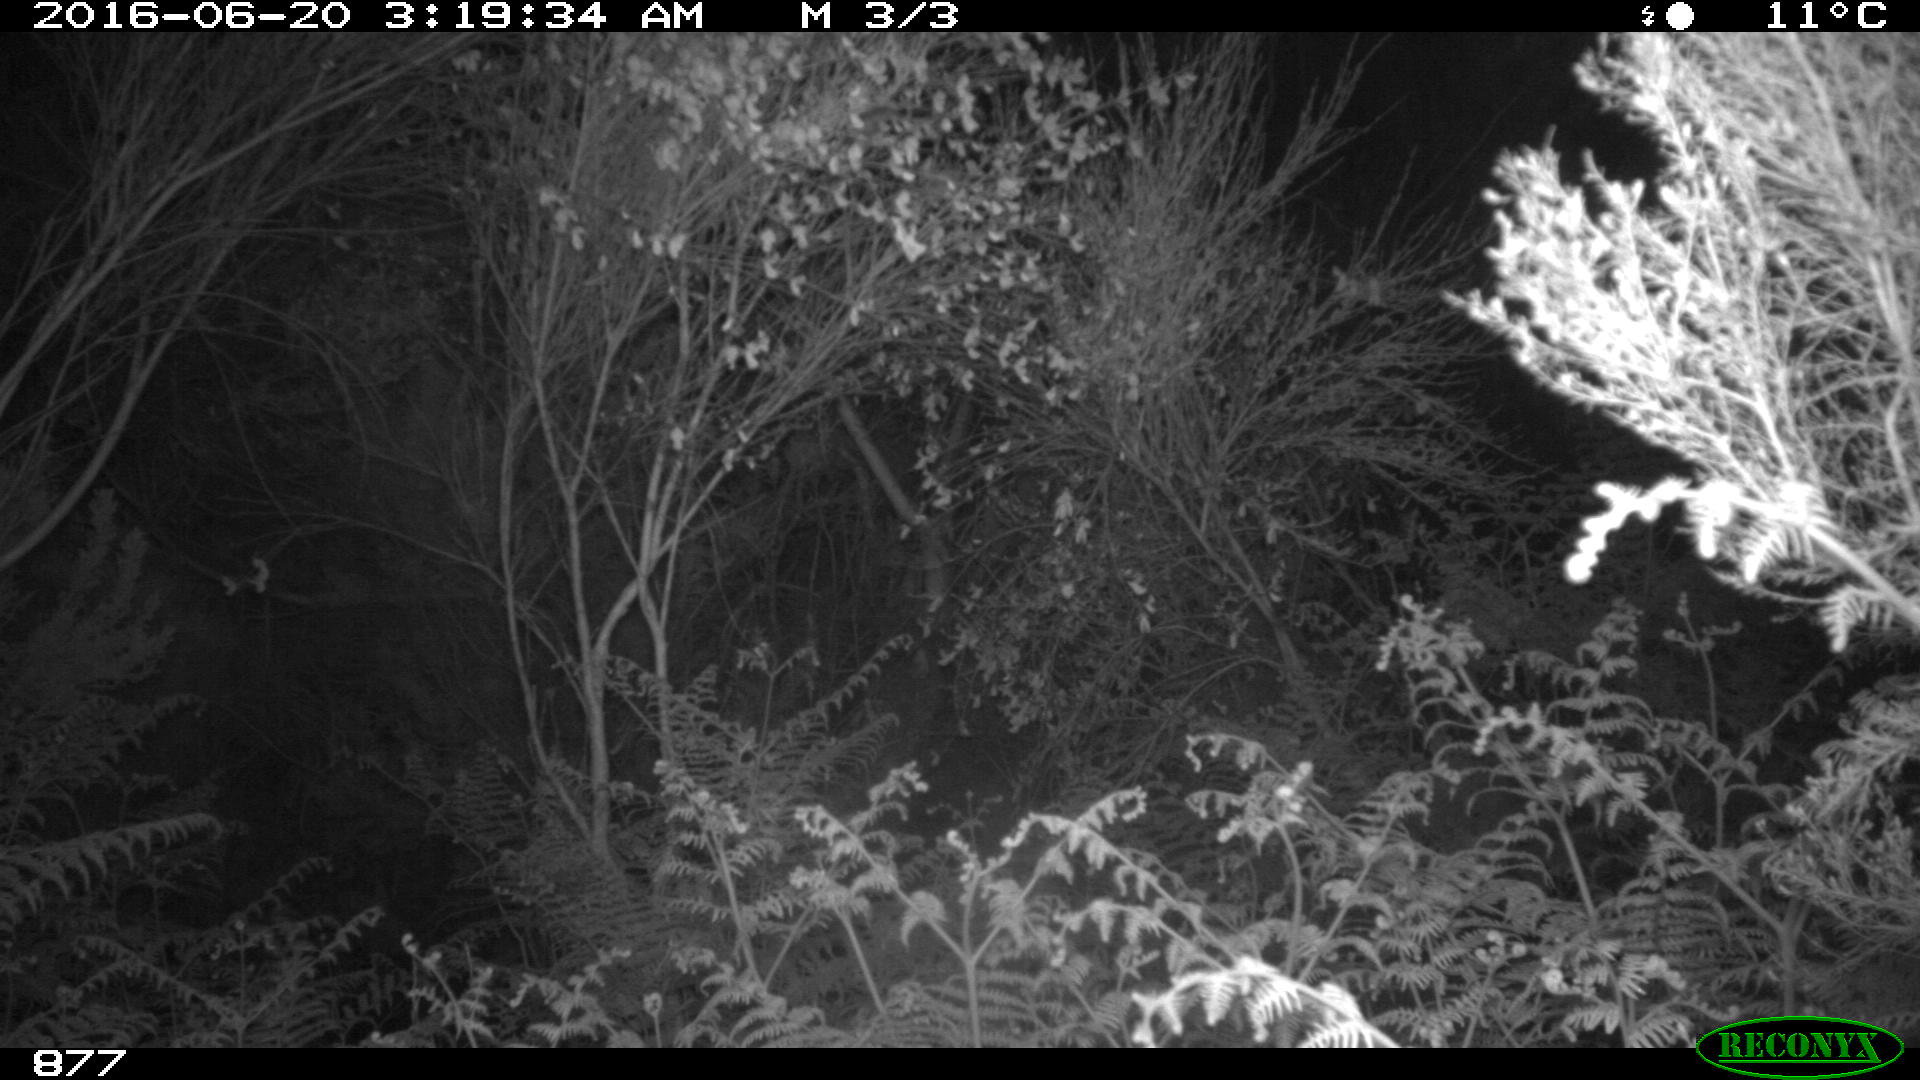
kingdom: Animalia
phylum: Chordata
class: Mammalia
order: Artiodactyla
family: Cervidae
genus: Capreolus
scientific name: Capreolus capreolus
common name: Western roe deer
